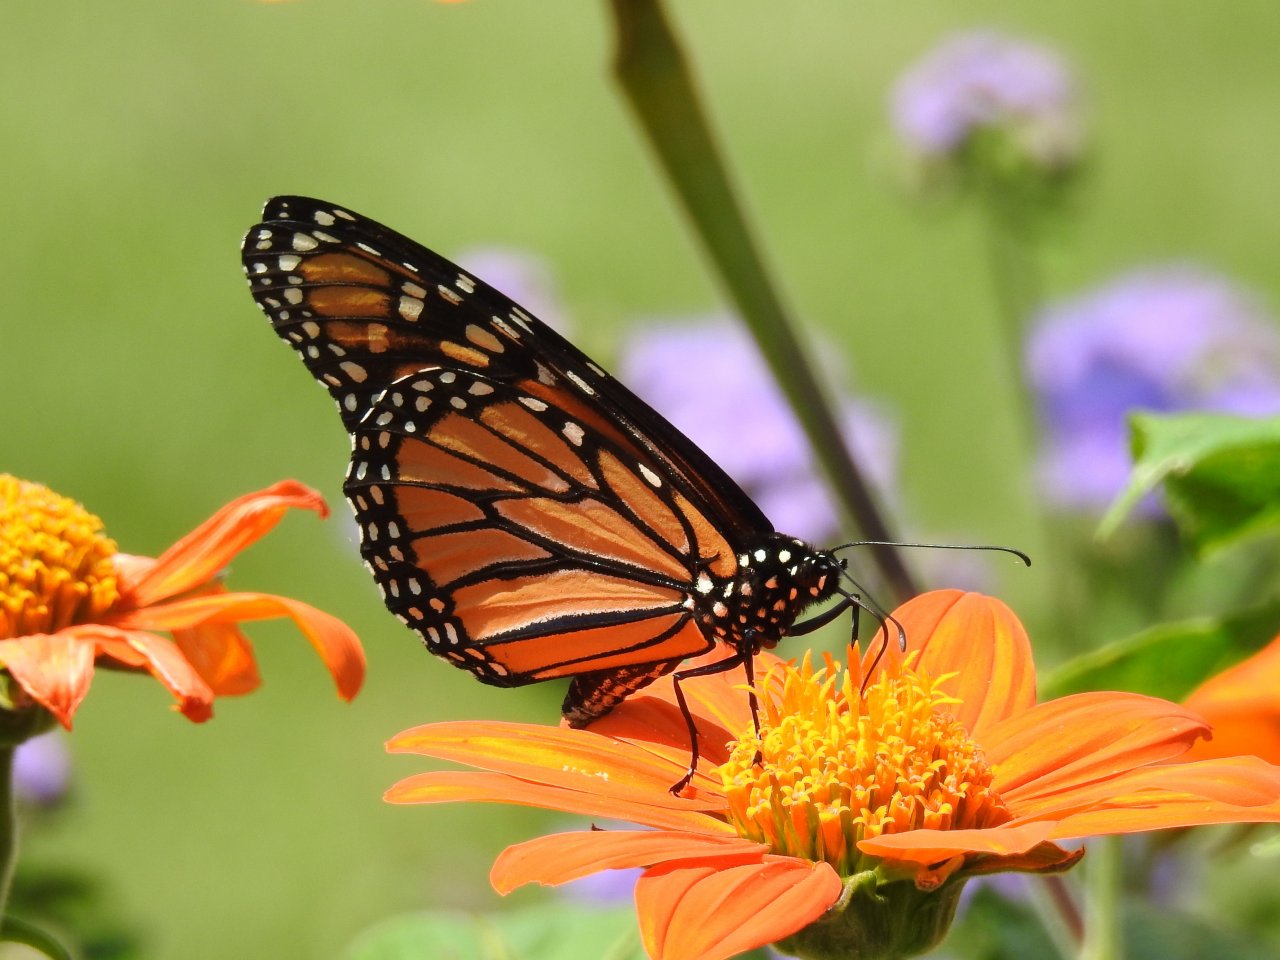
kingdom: Animalia
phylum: Arthropoda
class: Insecta
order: Lepidoptera
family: Nymphalidae
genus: Danaus
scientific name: Danaus plexippus
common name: Monarch
